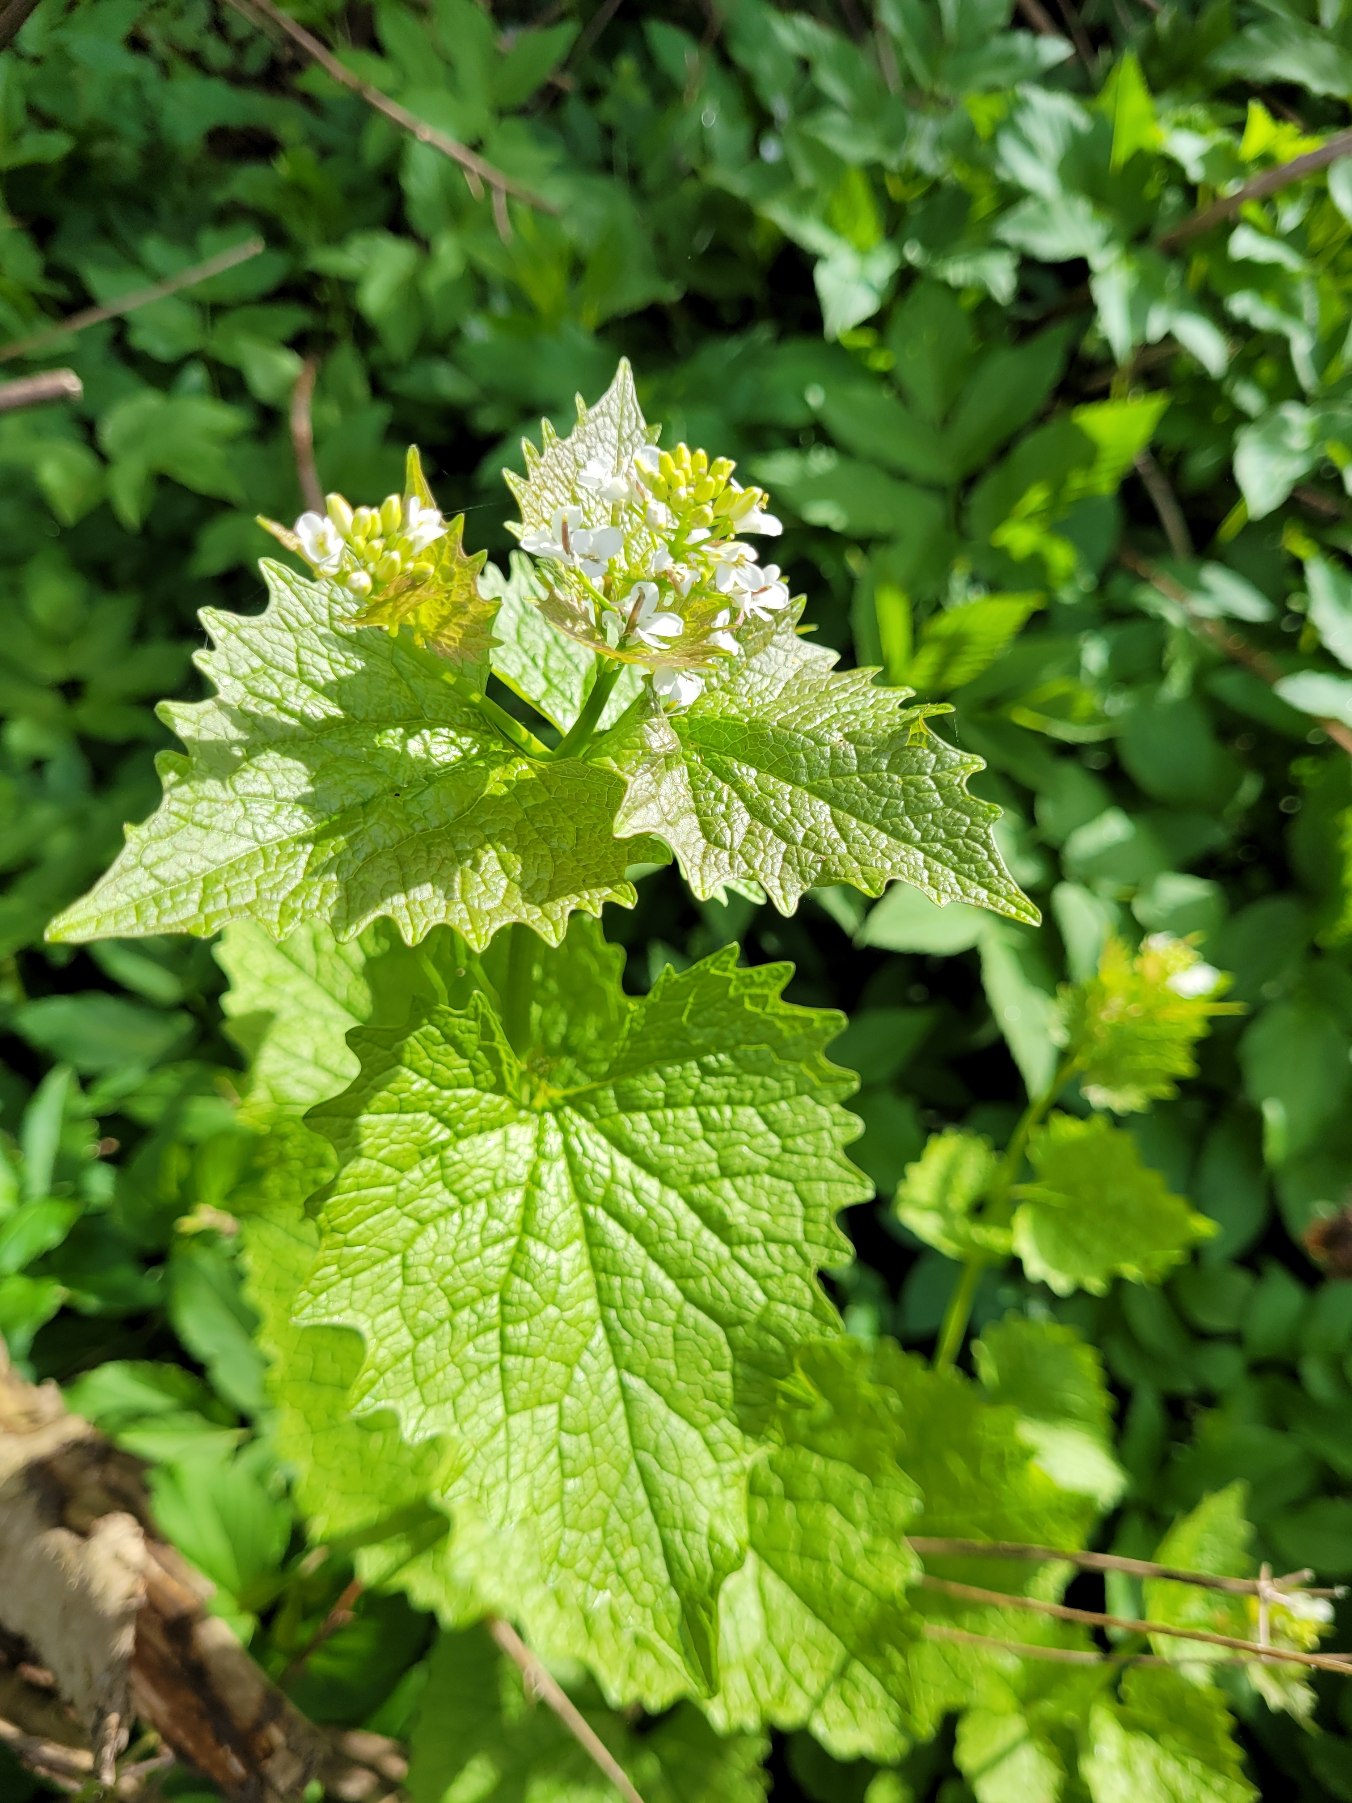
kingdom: Plantae
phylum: Tracheophyta
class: Magnoliopsida
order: Brassicales
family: Brassicaceae
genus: Alliaria
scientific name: Alliaria petiolata
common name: Løgkarse
